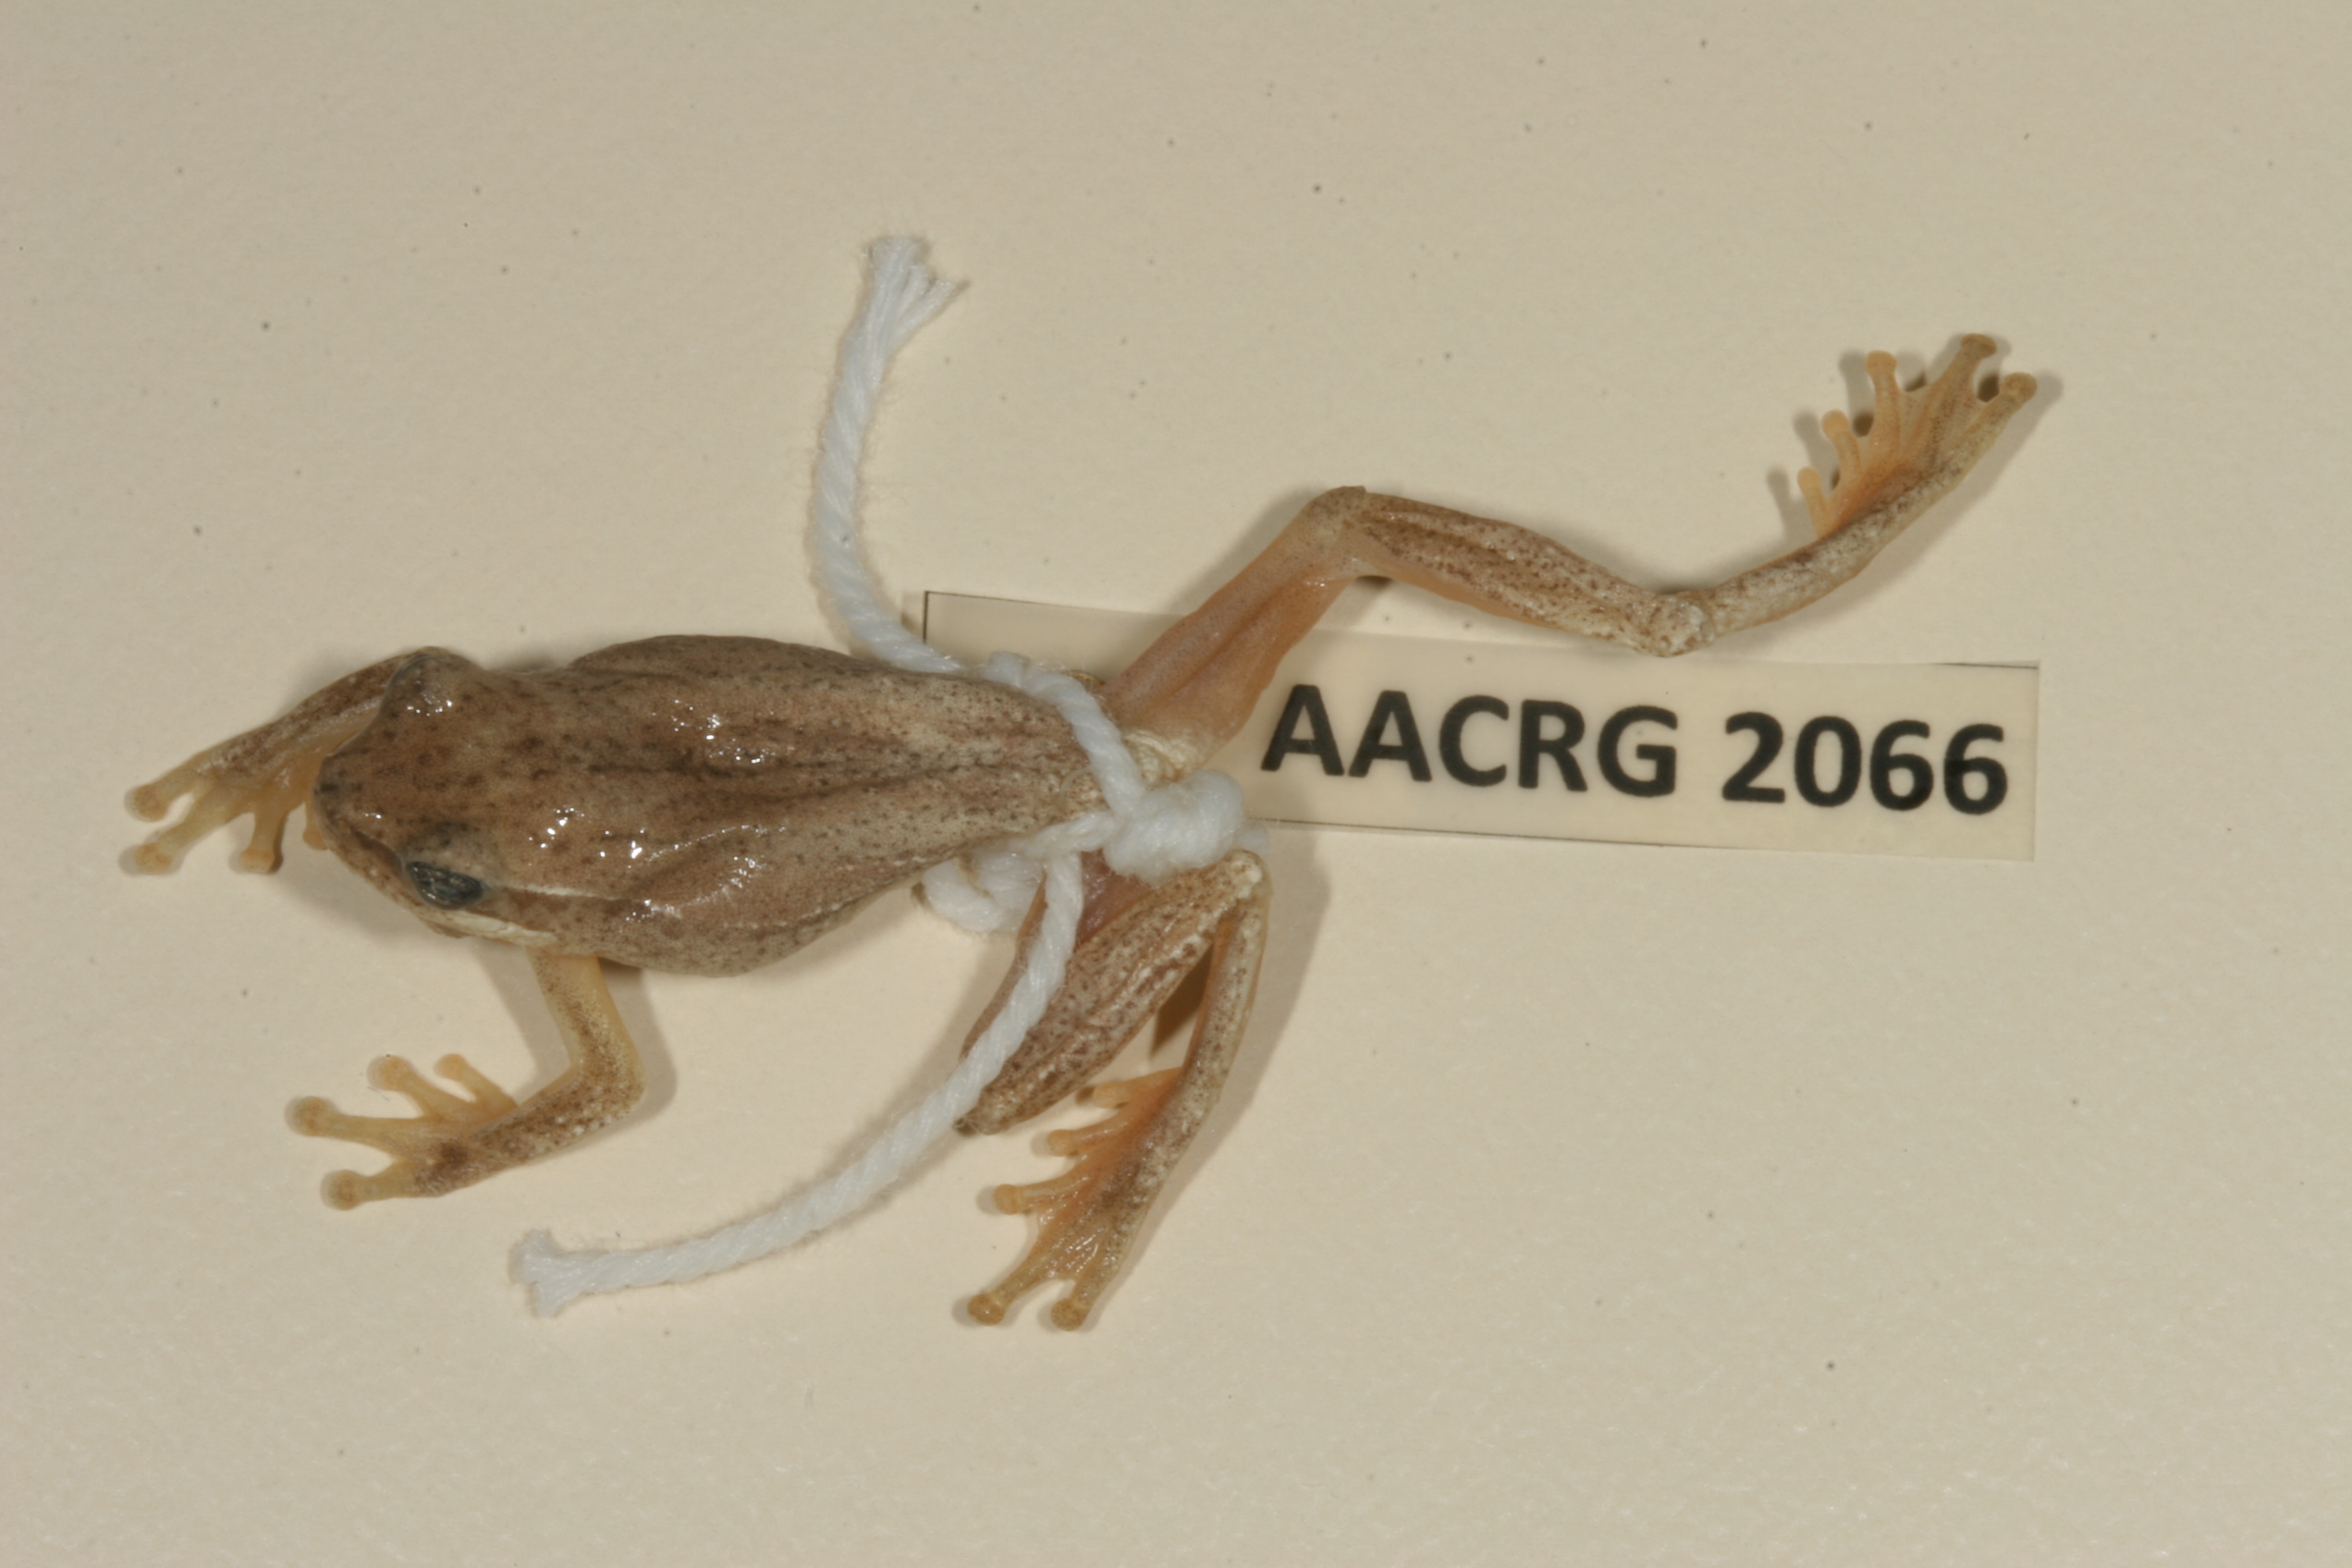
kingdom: Animalia
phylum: Chordata
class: Amphibia
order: Anura
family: Hyperoliidae
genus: Hyperolius
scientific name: Hyperolius marmoratus
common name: Painted reed frog
